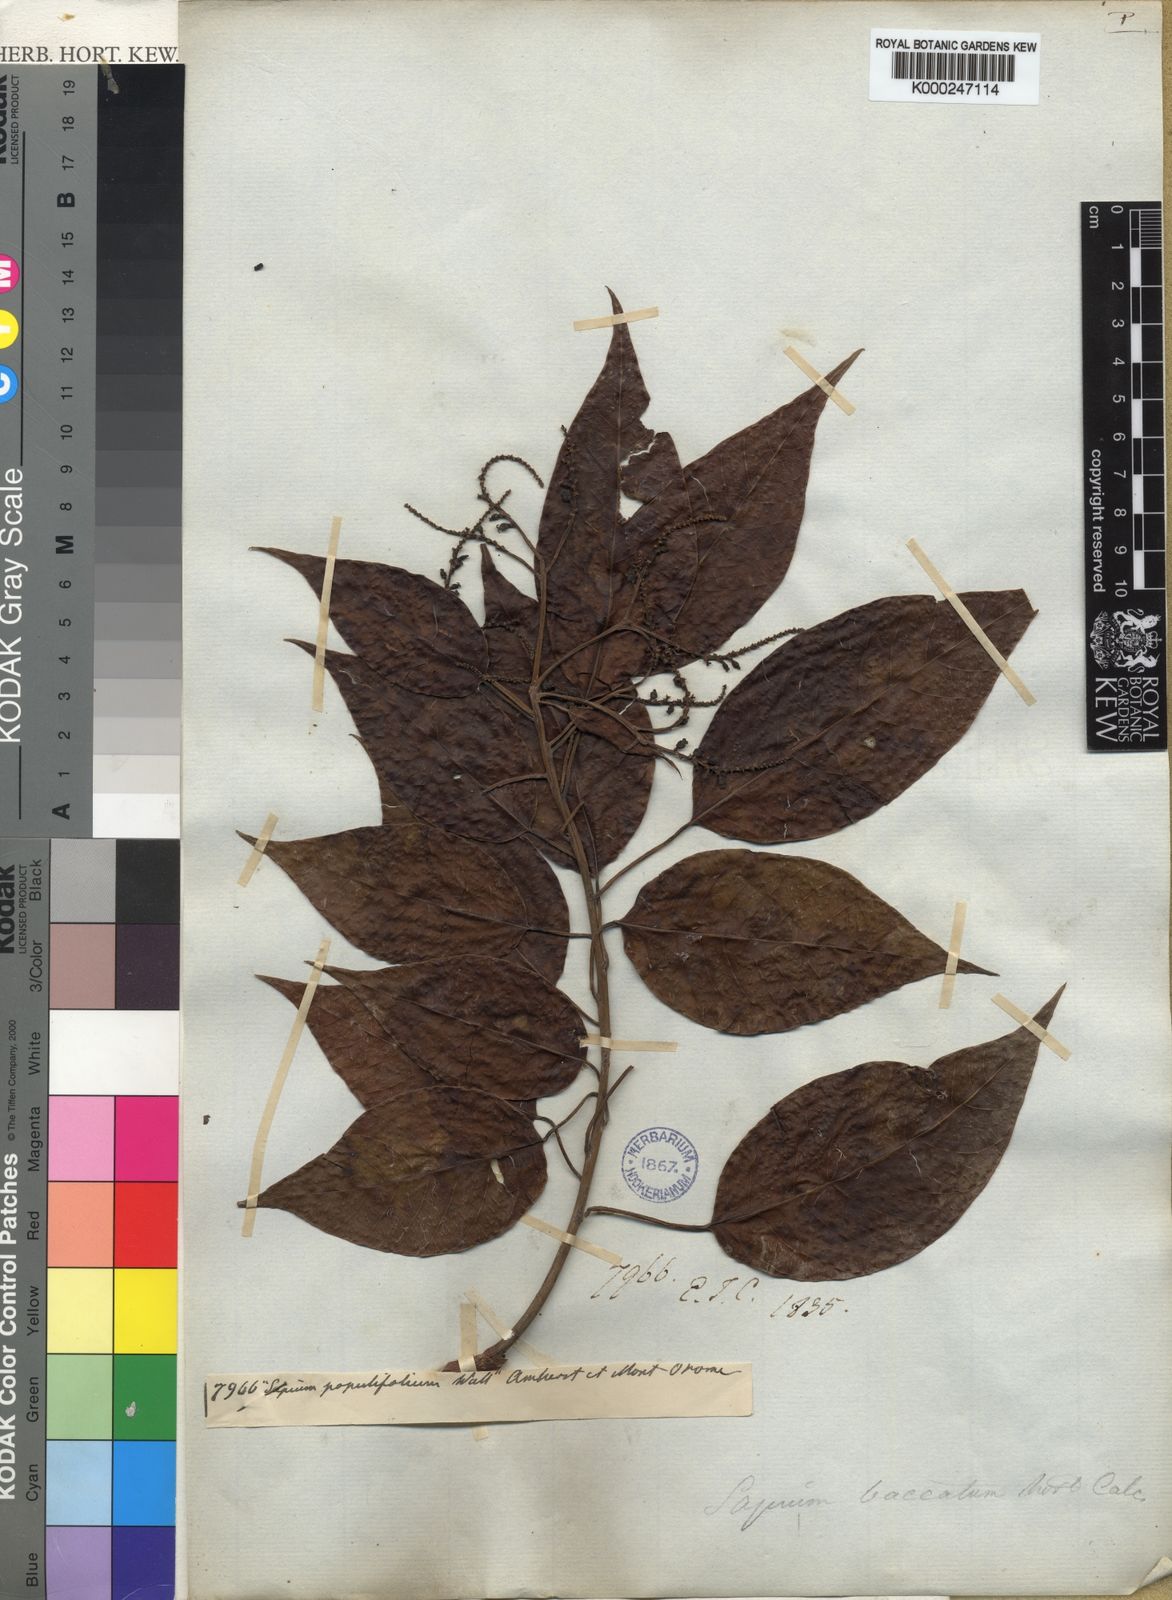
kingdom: Plantae
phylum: Tracheophyta
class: Magnoliopsida
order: Malpighiales
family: Euphorbiaceae
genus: Balakata
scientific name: Balakata baccata
